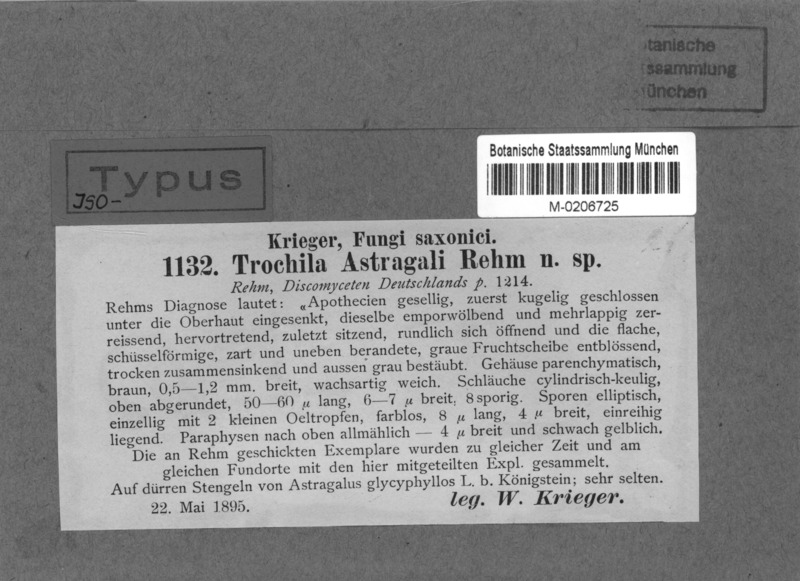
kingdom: Fungi
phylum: Ascomycota
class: Leotiomycetes
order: Helotiales
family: Cenangiaceae
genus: Trochila
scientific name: Trochila astragali
